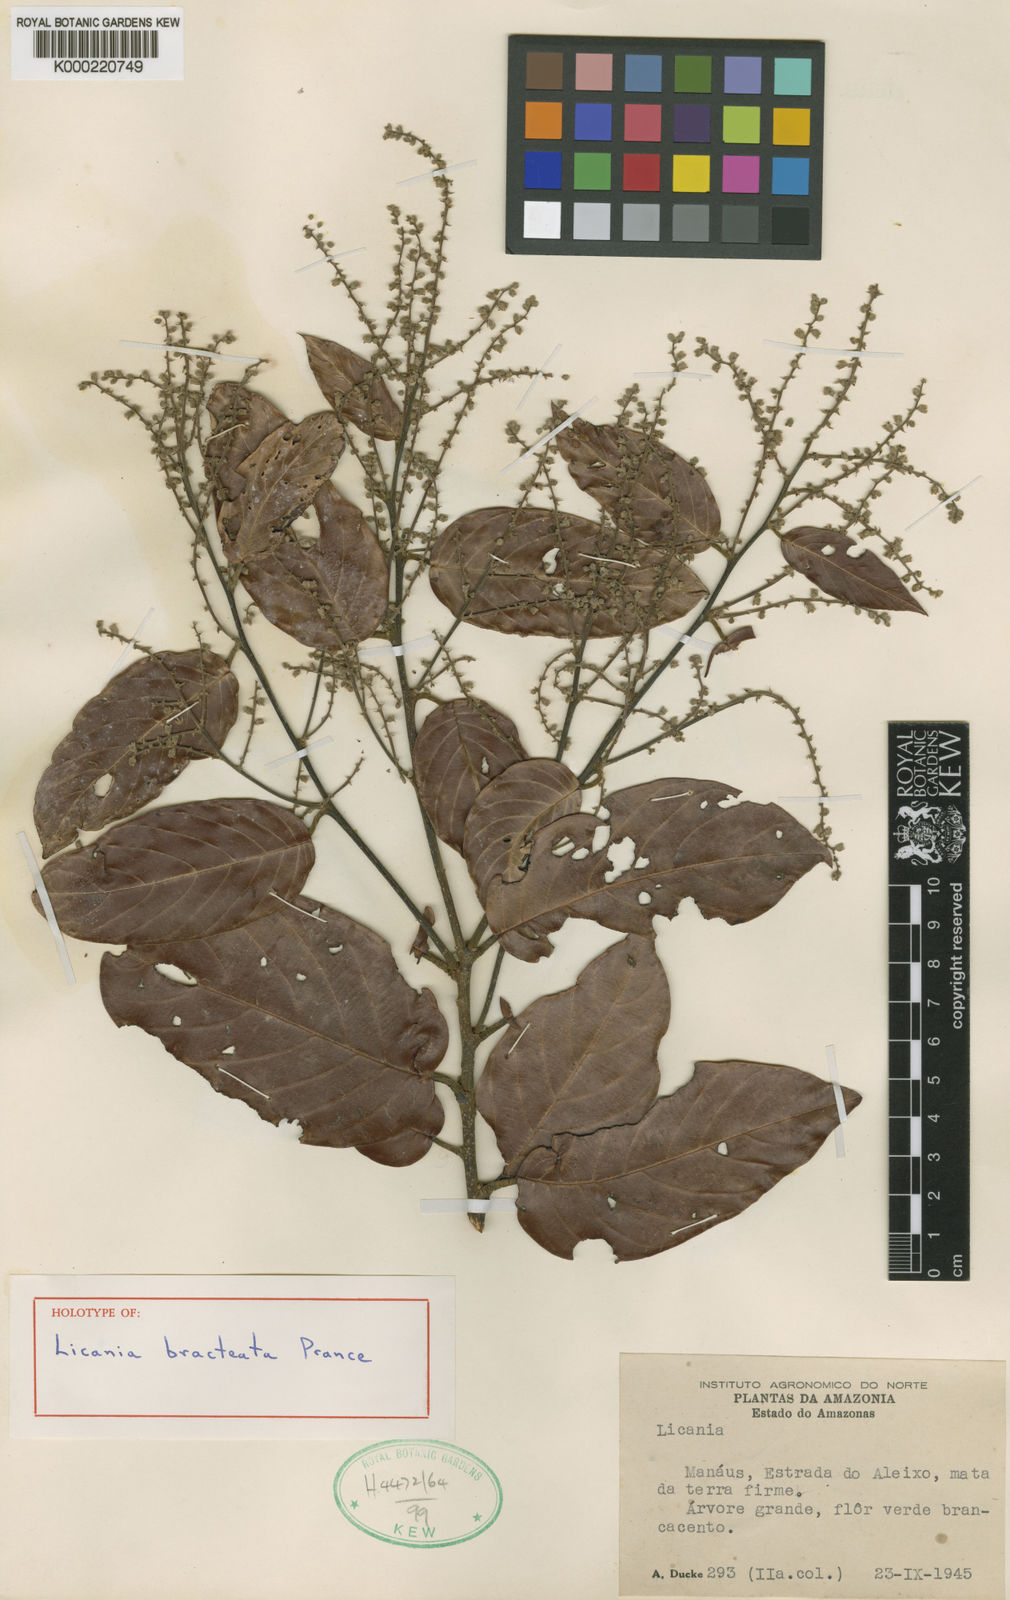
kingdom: Plantae
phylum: Tracheophyta
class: Magnoliopsida
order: Malpighiales
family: Chrysobalanaceae
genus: Licania
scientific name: Licania bracteata
